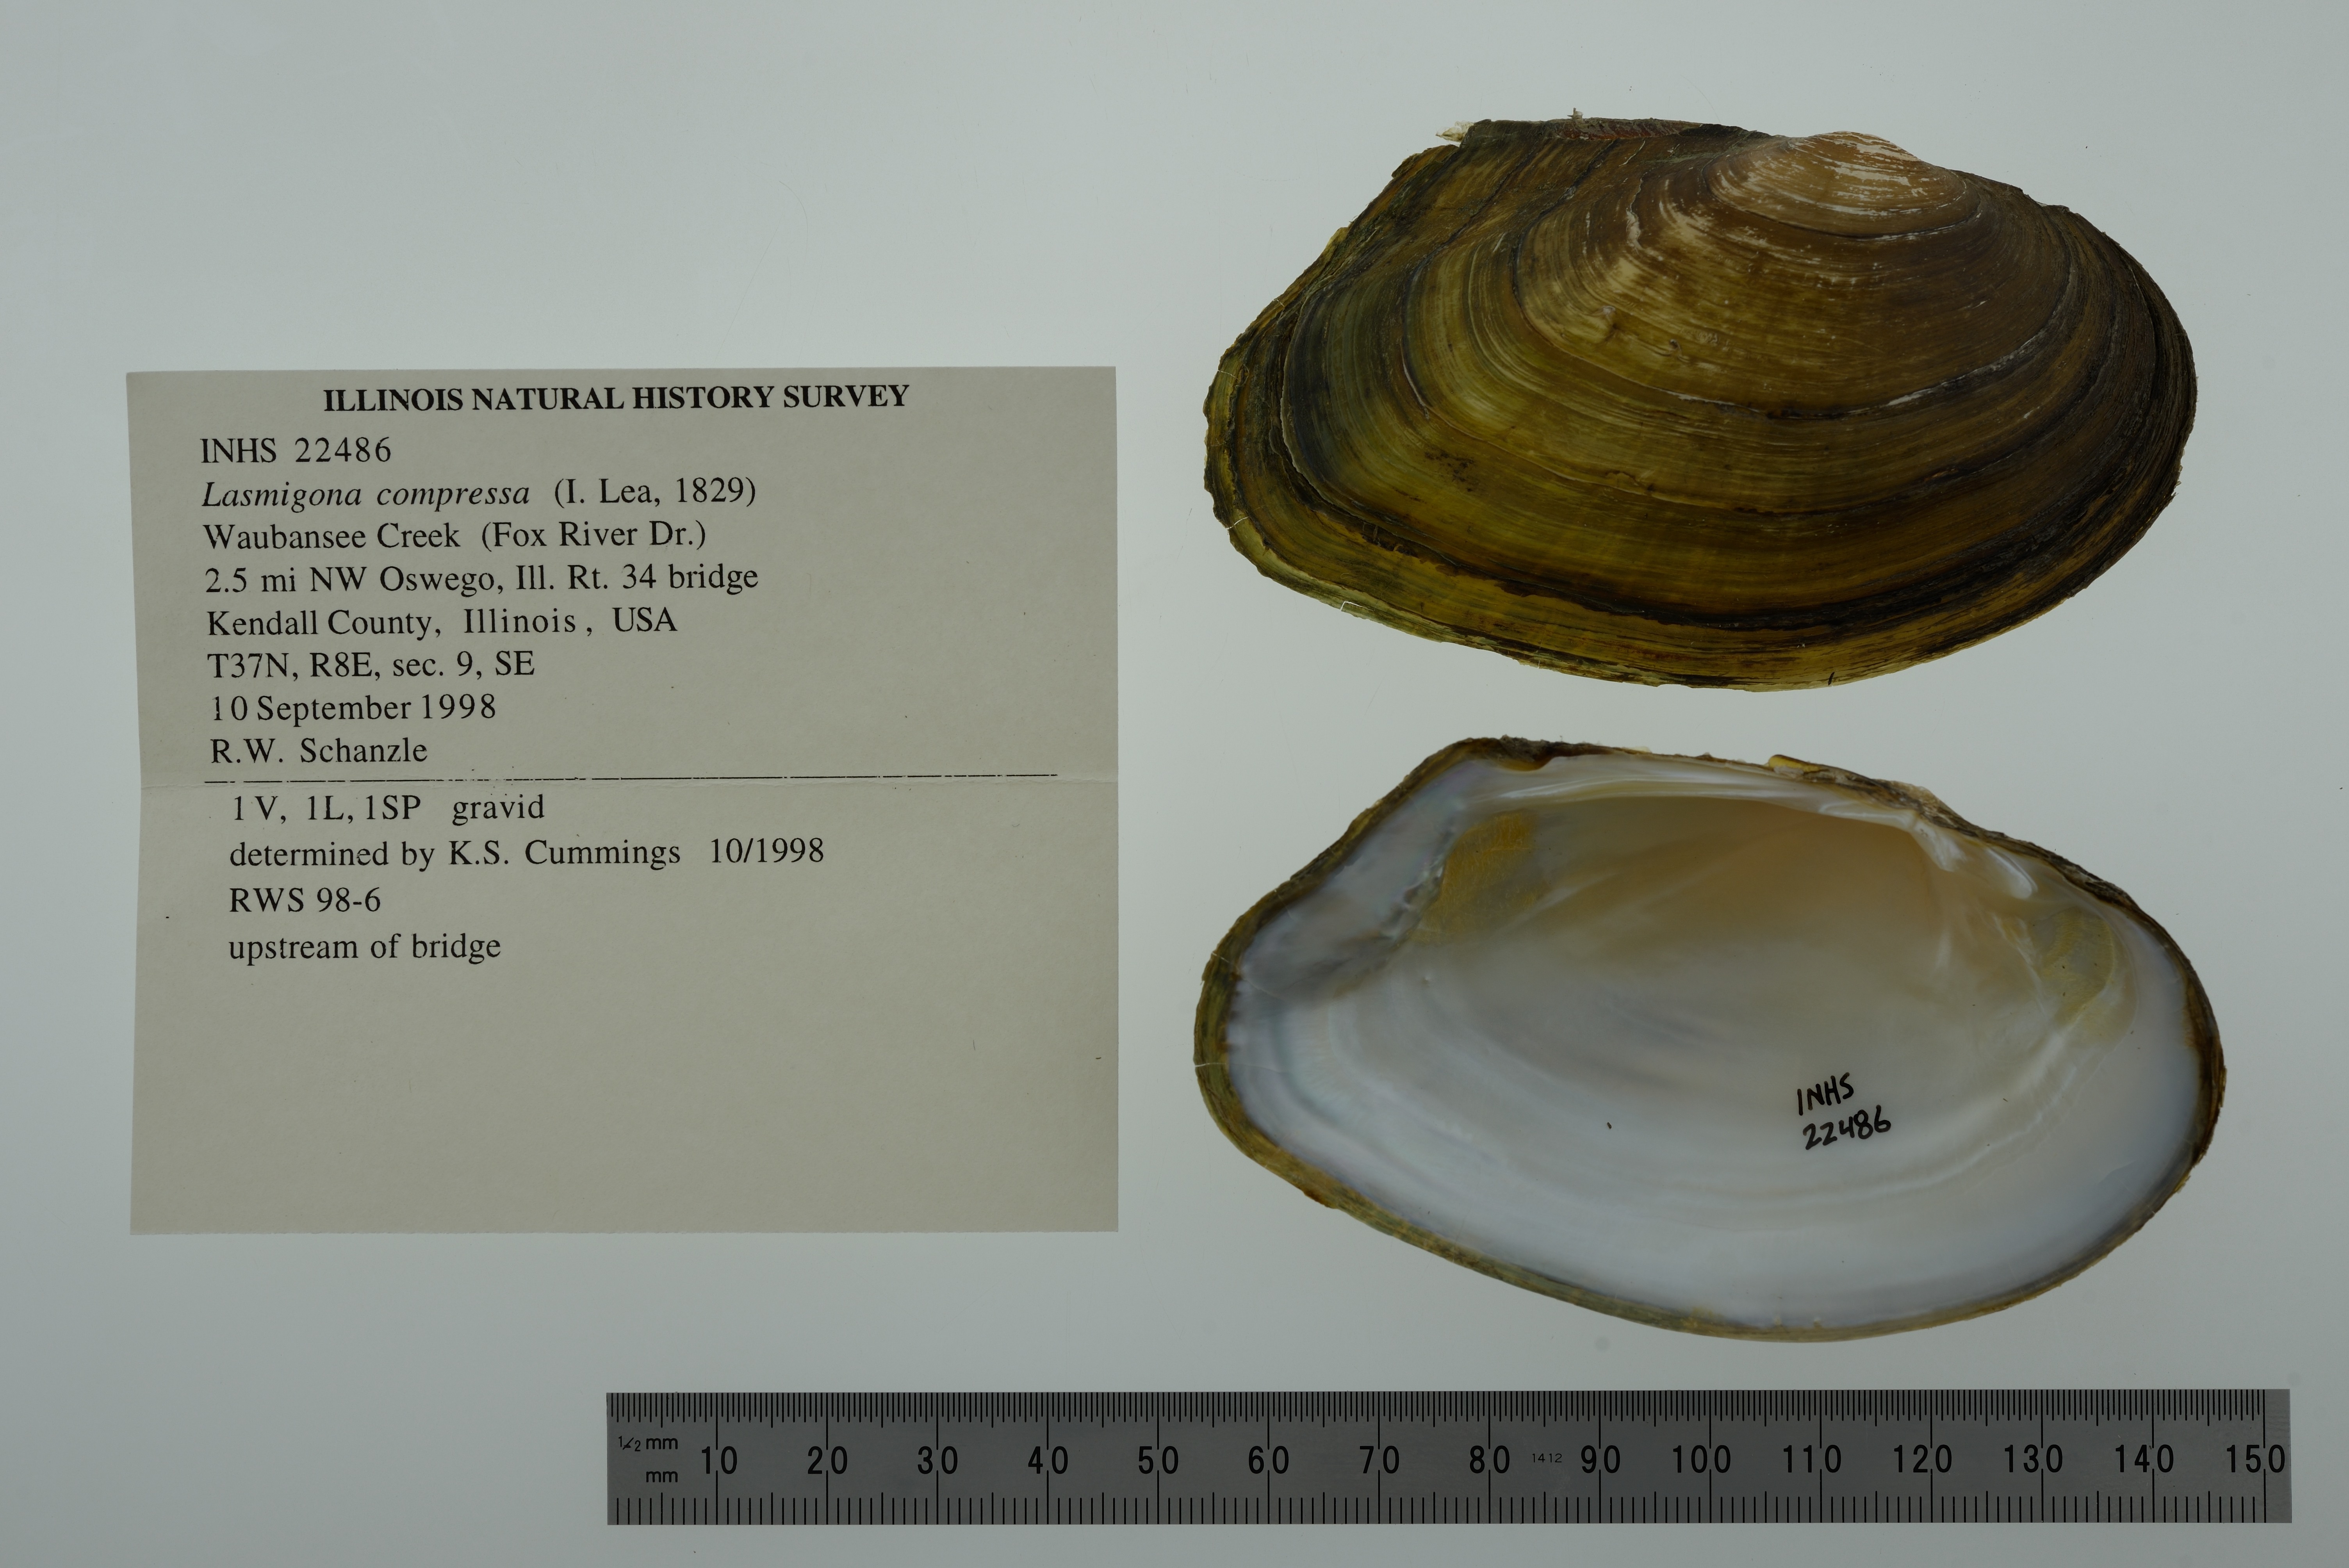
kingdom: Animalia
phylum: Mollusca
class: Bivalvia
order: Unionida
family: Unionidae
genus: Lasmigona
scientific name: Lasmigona compressa
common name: Creek heelsplitter
